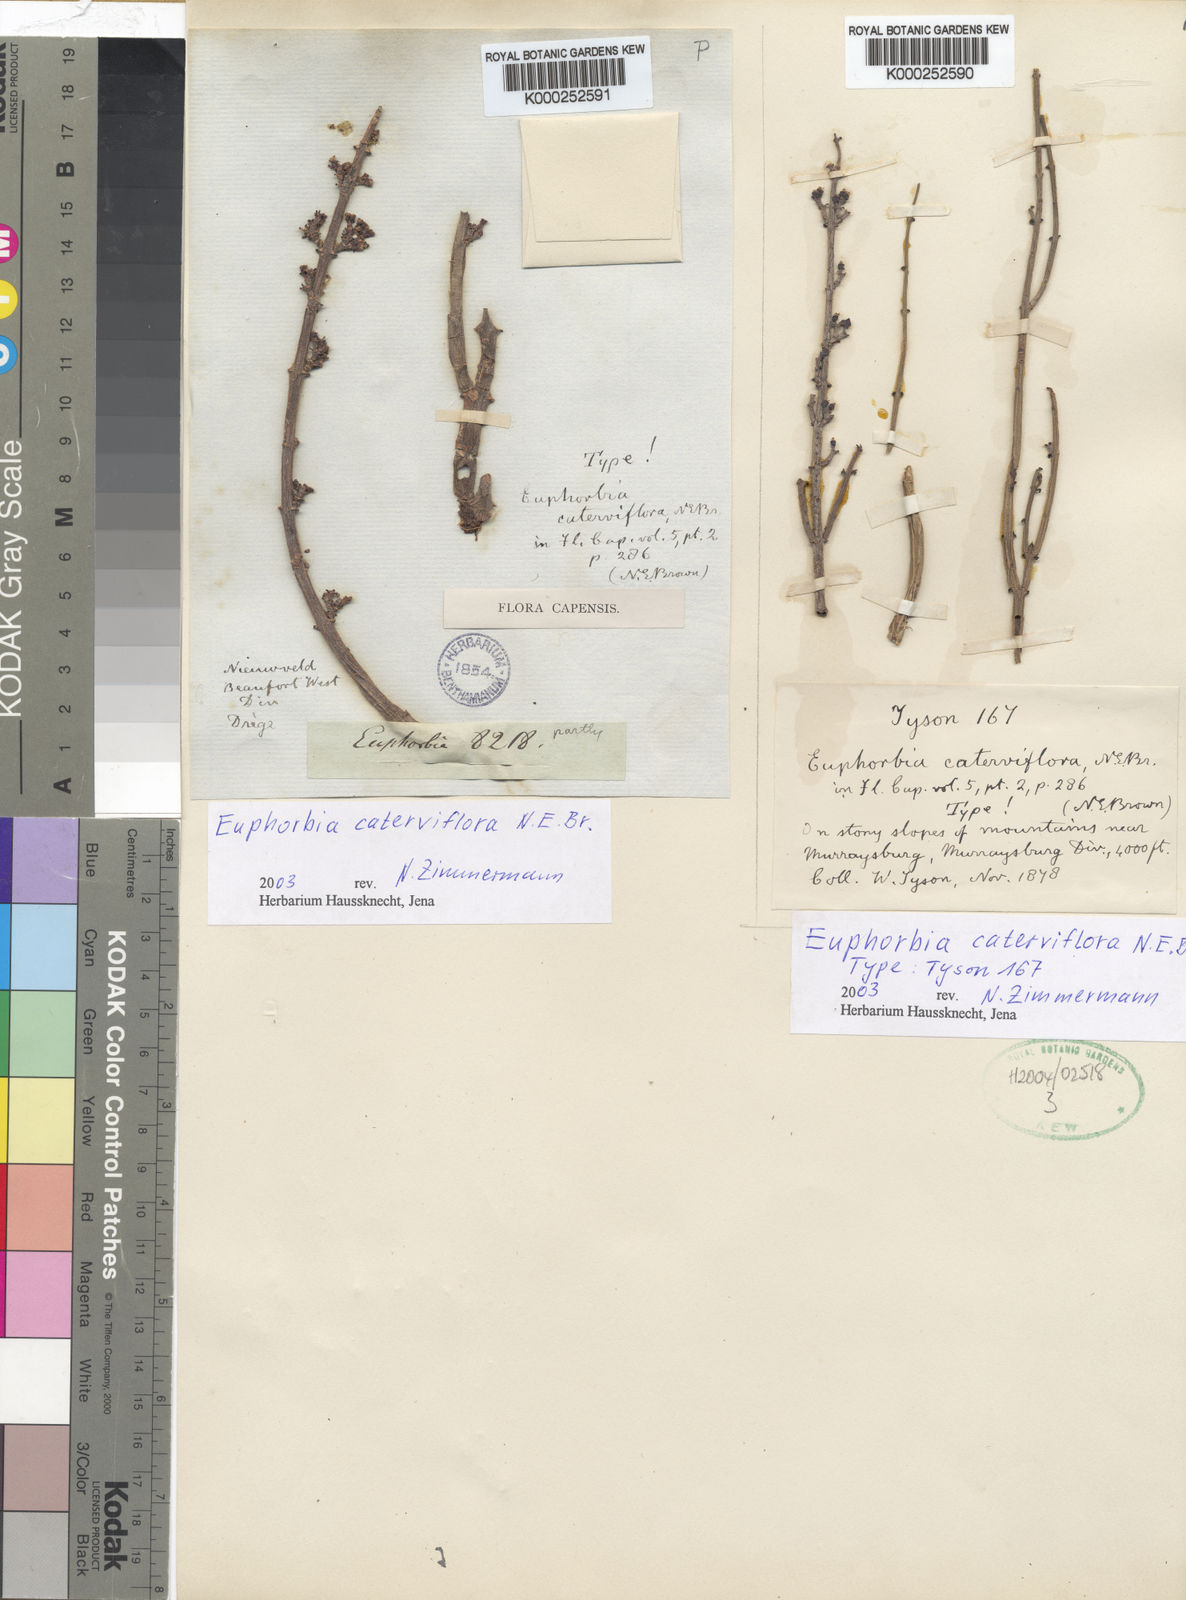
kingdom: Plantae
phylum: Tracheophyta
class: Magnoliopsida
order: Malpighiales
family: Euphorbiaceae
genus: Euphorbia
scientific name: Euphorbia rhombifolia
